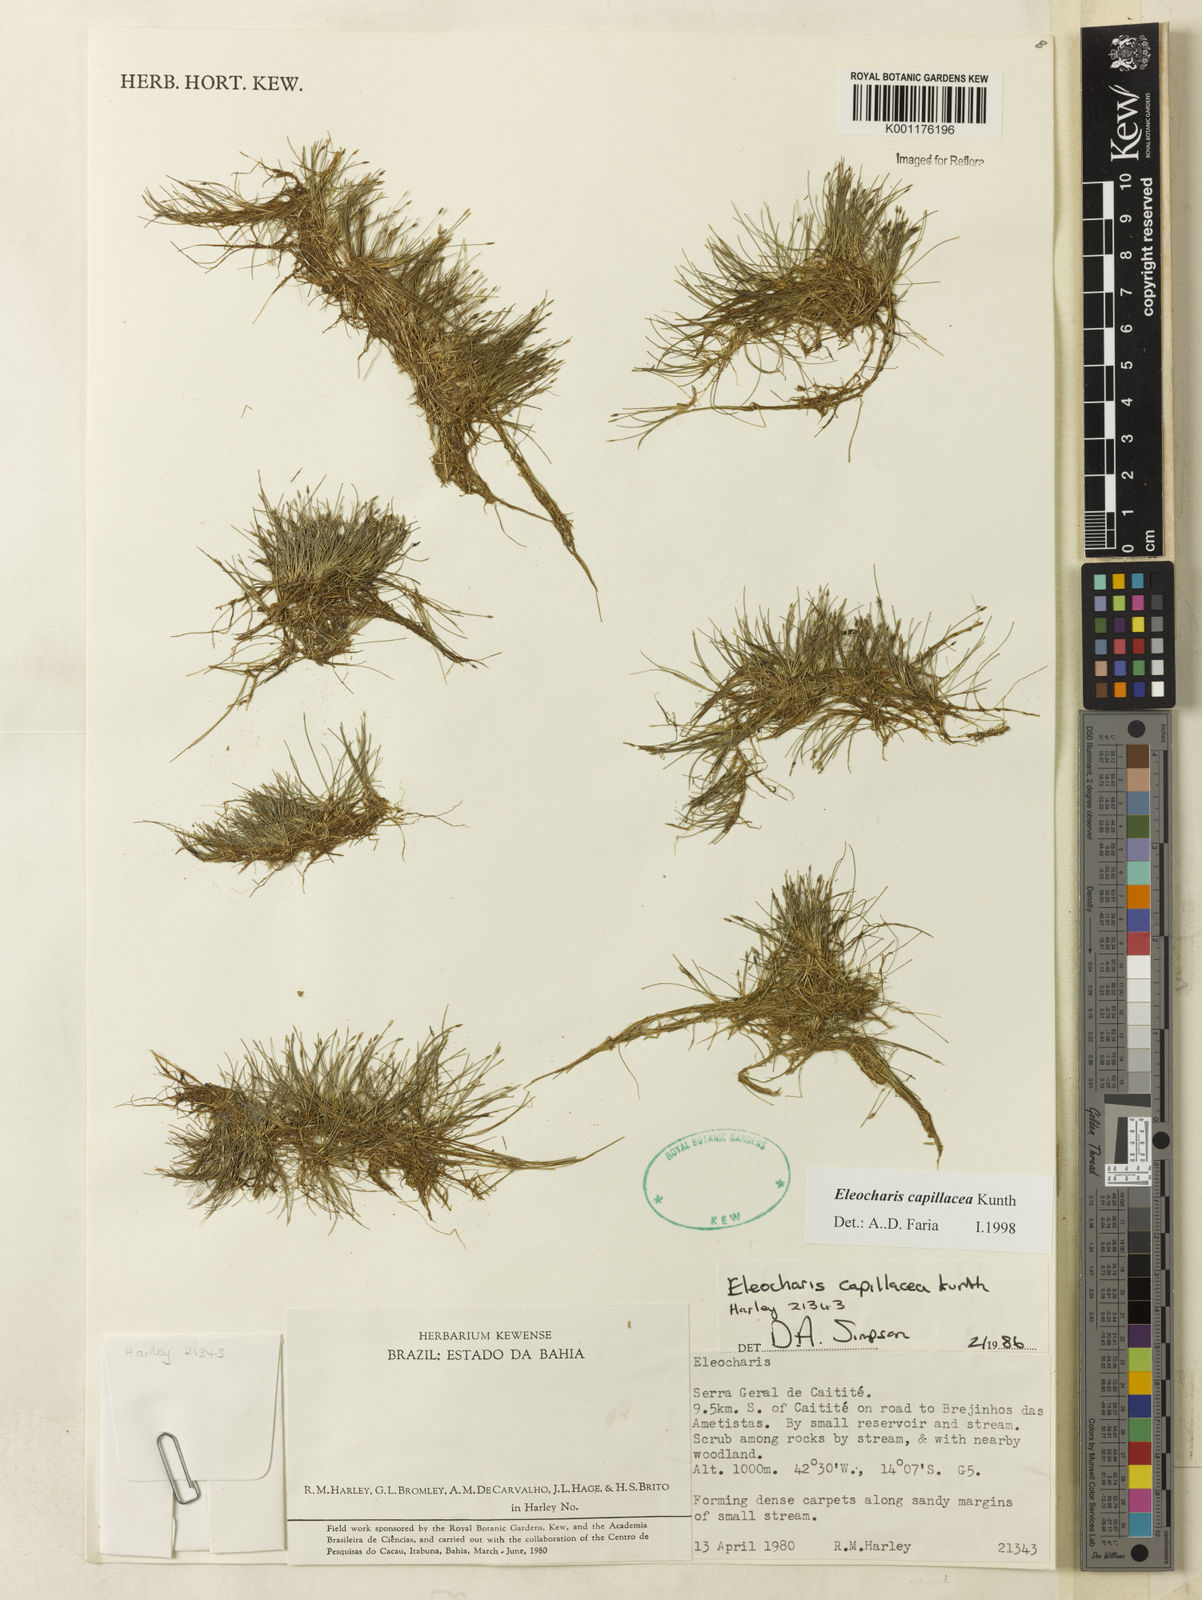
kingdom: Plantae
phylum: Tracheophyta
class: Liliopsida
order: Poales
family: Cyperaceae
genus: Eleocharis
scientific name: Eleocharis capillacea
